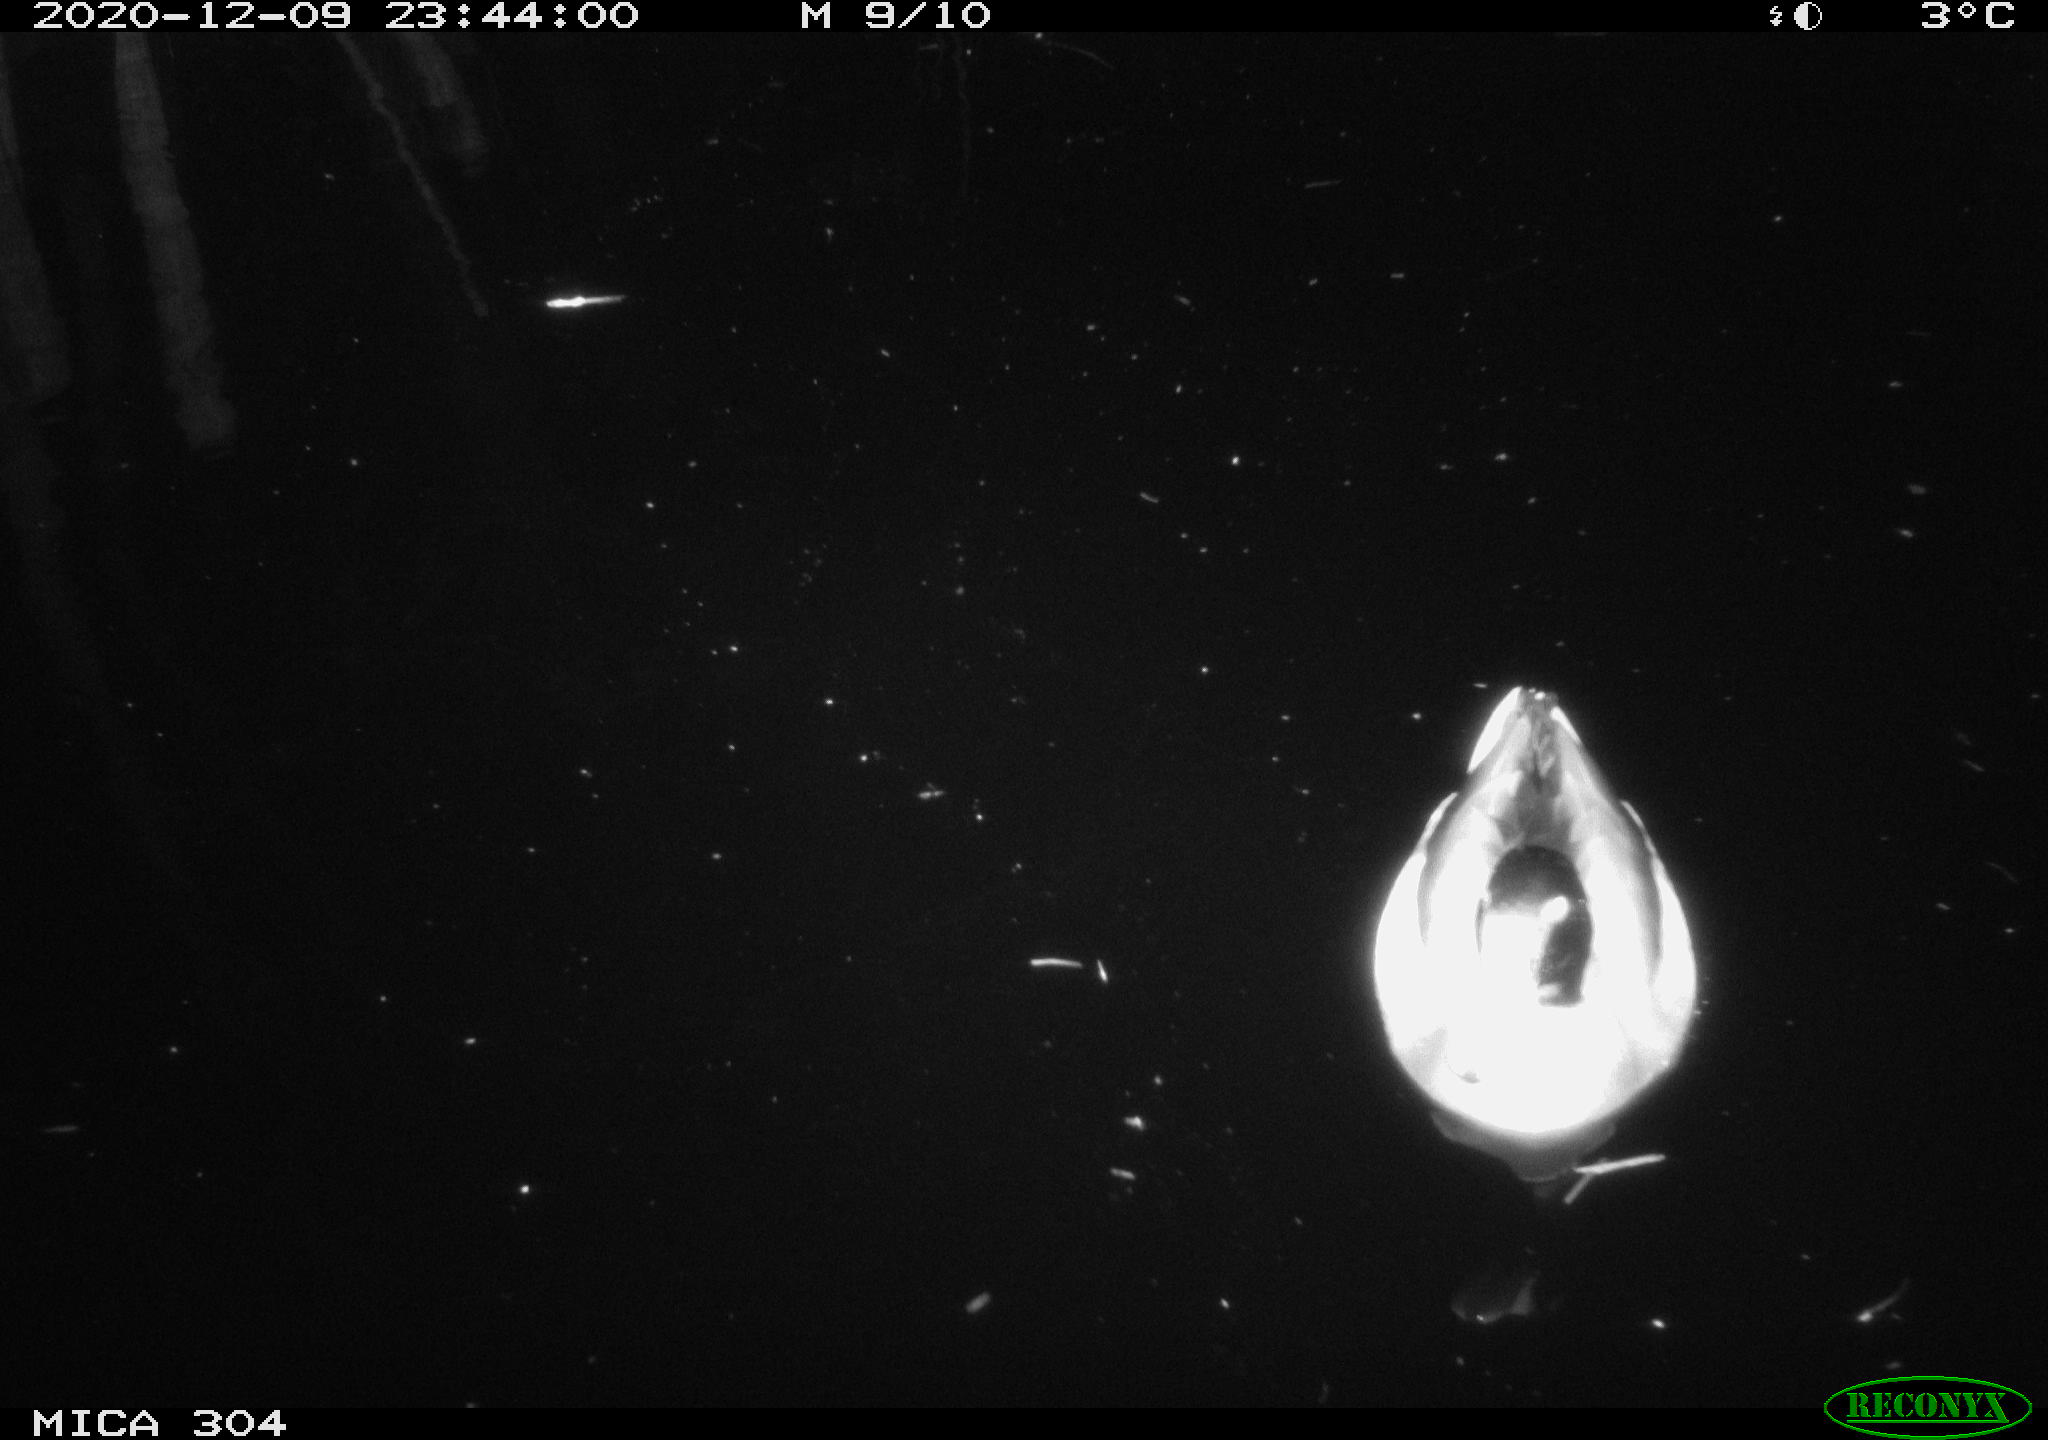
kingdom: Animalia
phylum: Chordata
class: Aves
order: Anseriformes
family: Anatidae
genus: Anas
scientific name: Anas platyrhynchos
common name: Mallard
